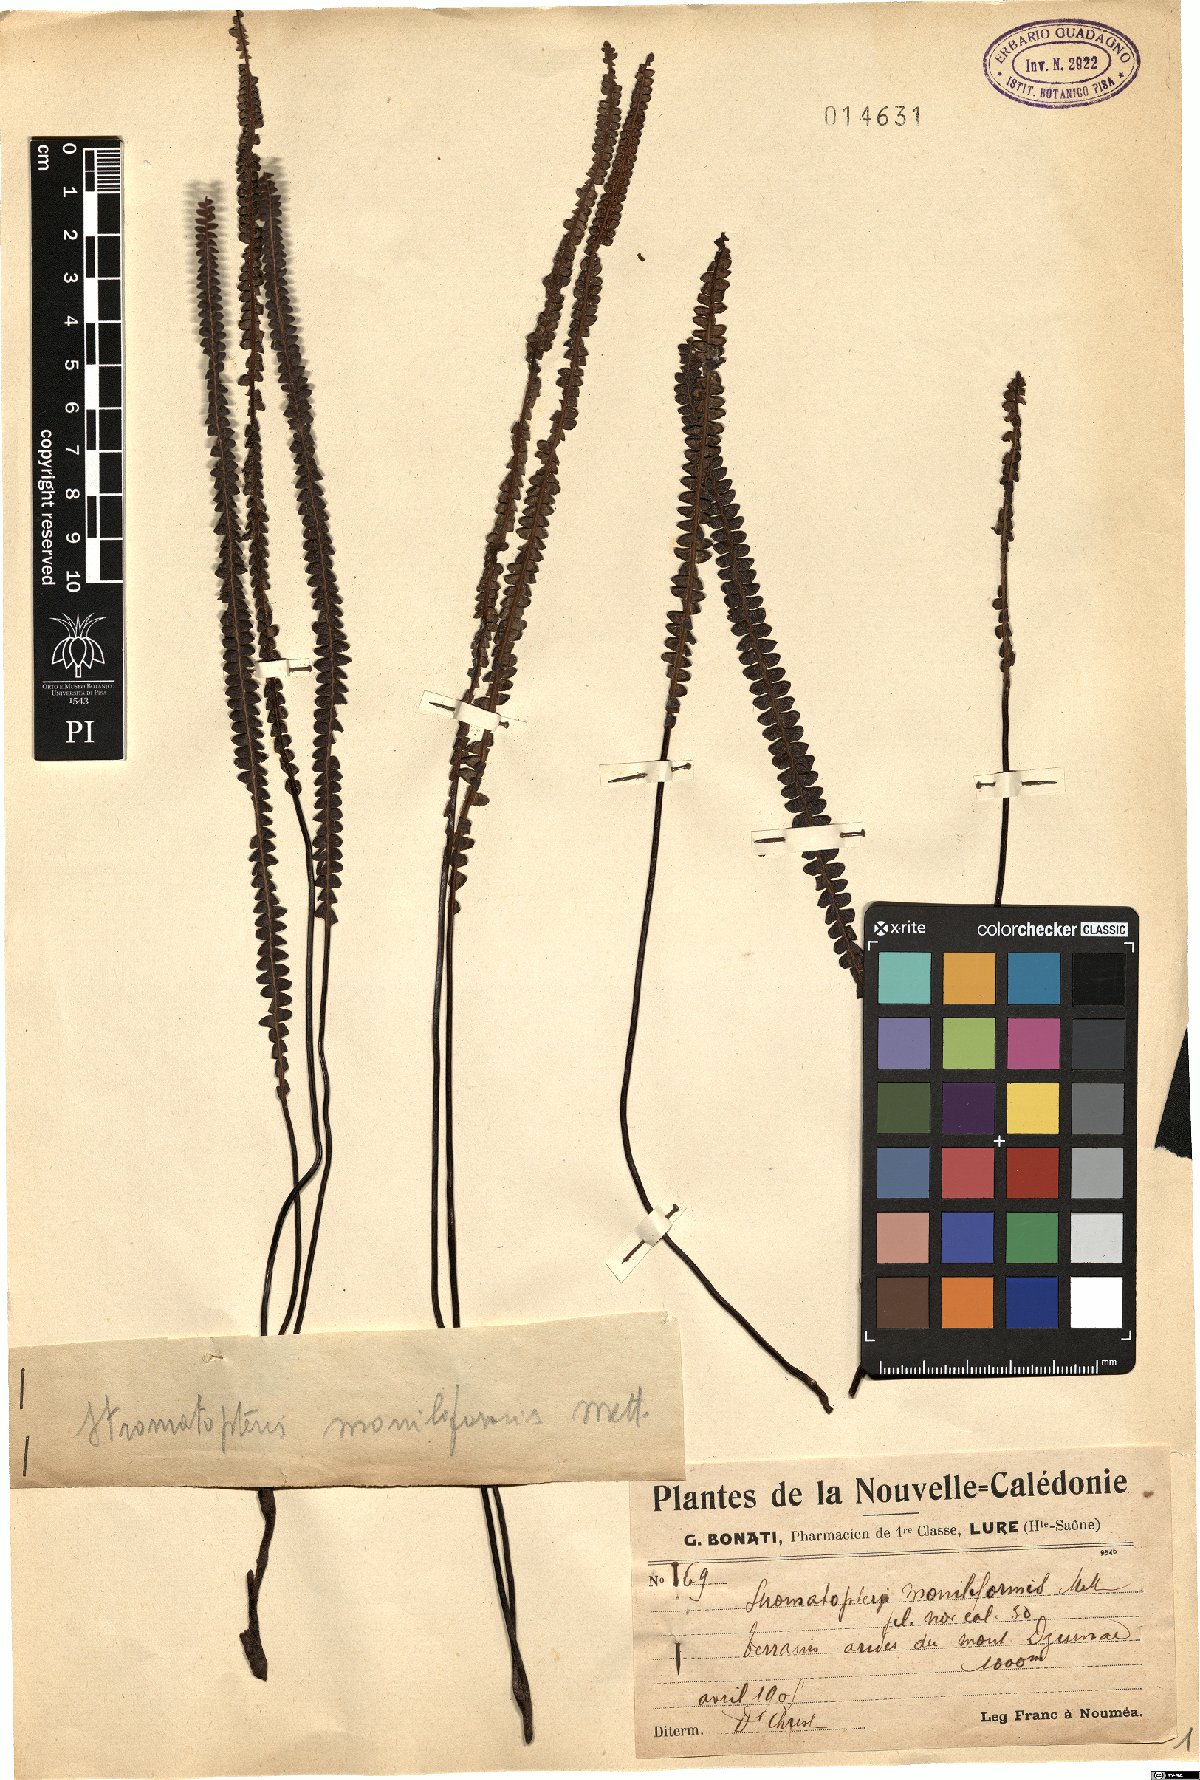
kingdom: Plantae
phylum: Tracheophyta
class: Polypodiopsida
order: Gleicheniales
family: Gleicheniaceae
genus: Stromatopteris
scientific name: Stromatopteris moniliformis
